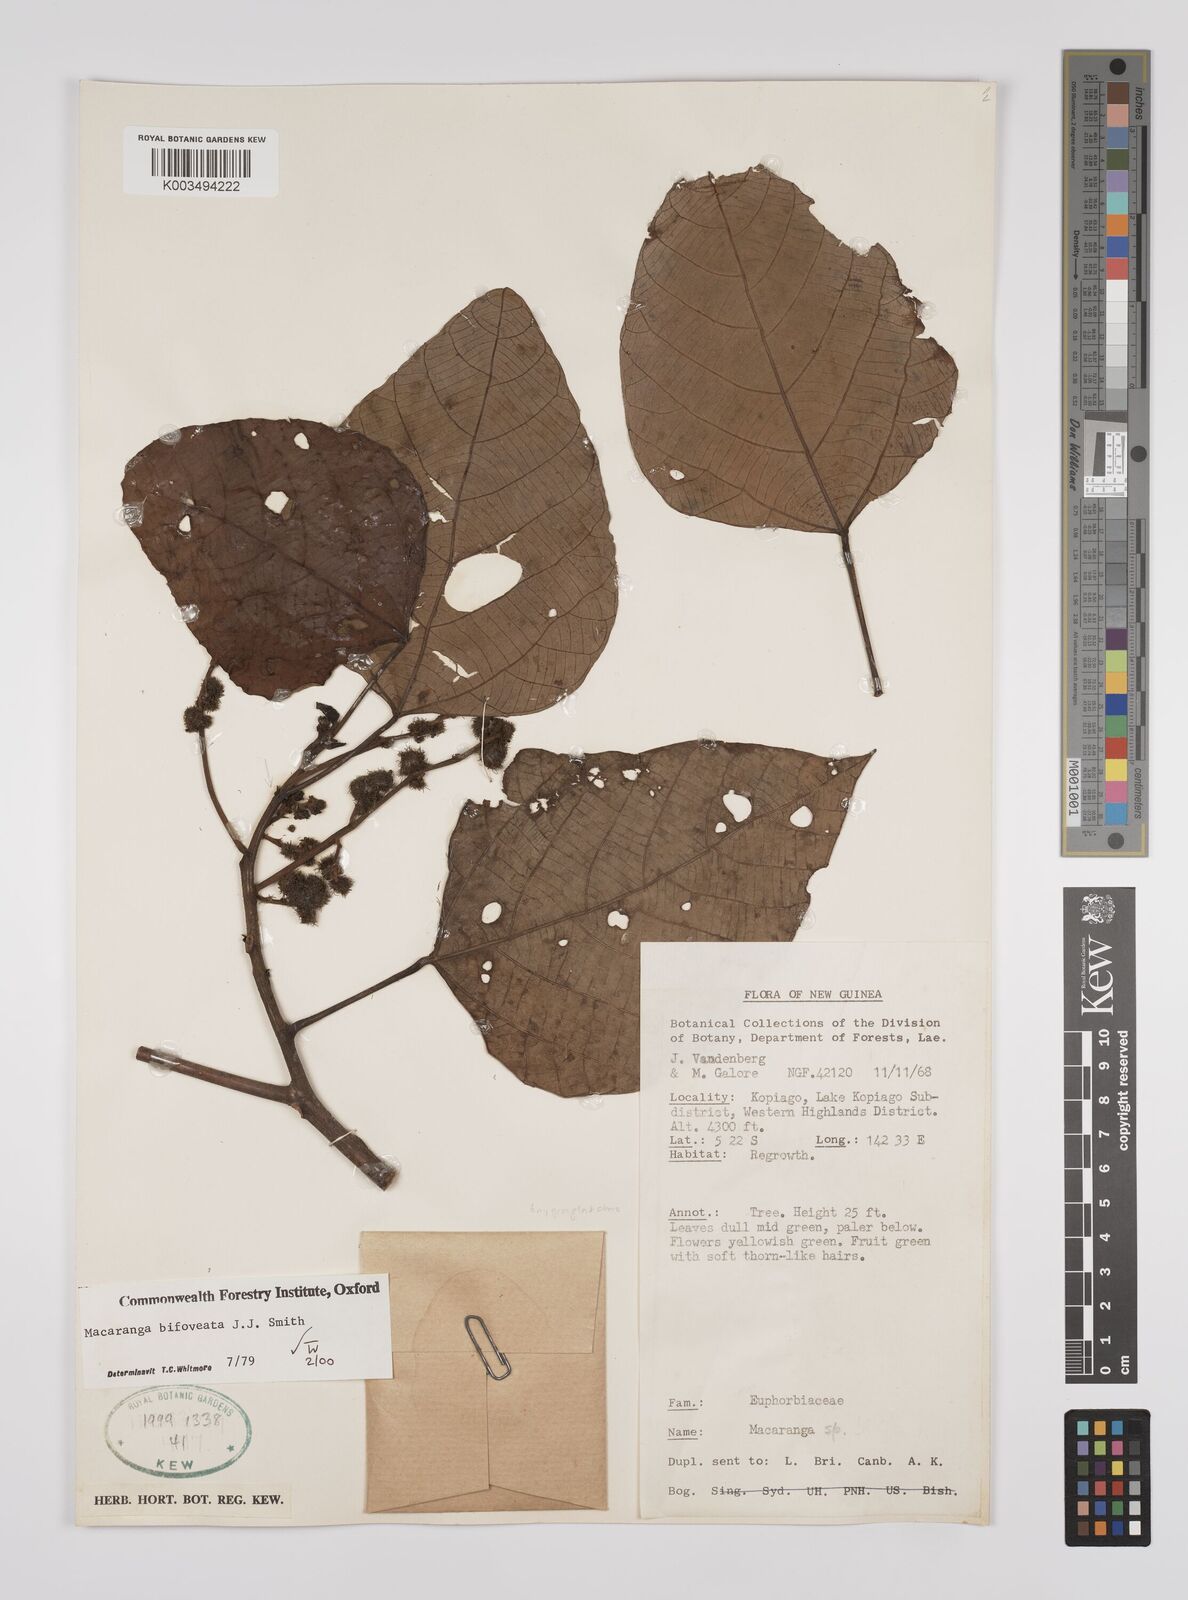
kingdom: Plantae
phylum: Tracheophyta
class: Magnoliopsida
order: Malpighiales
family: Euphorbiaceae
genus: Macaranga
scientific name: Macaranga bifoveata
